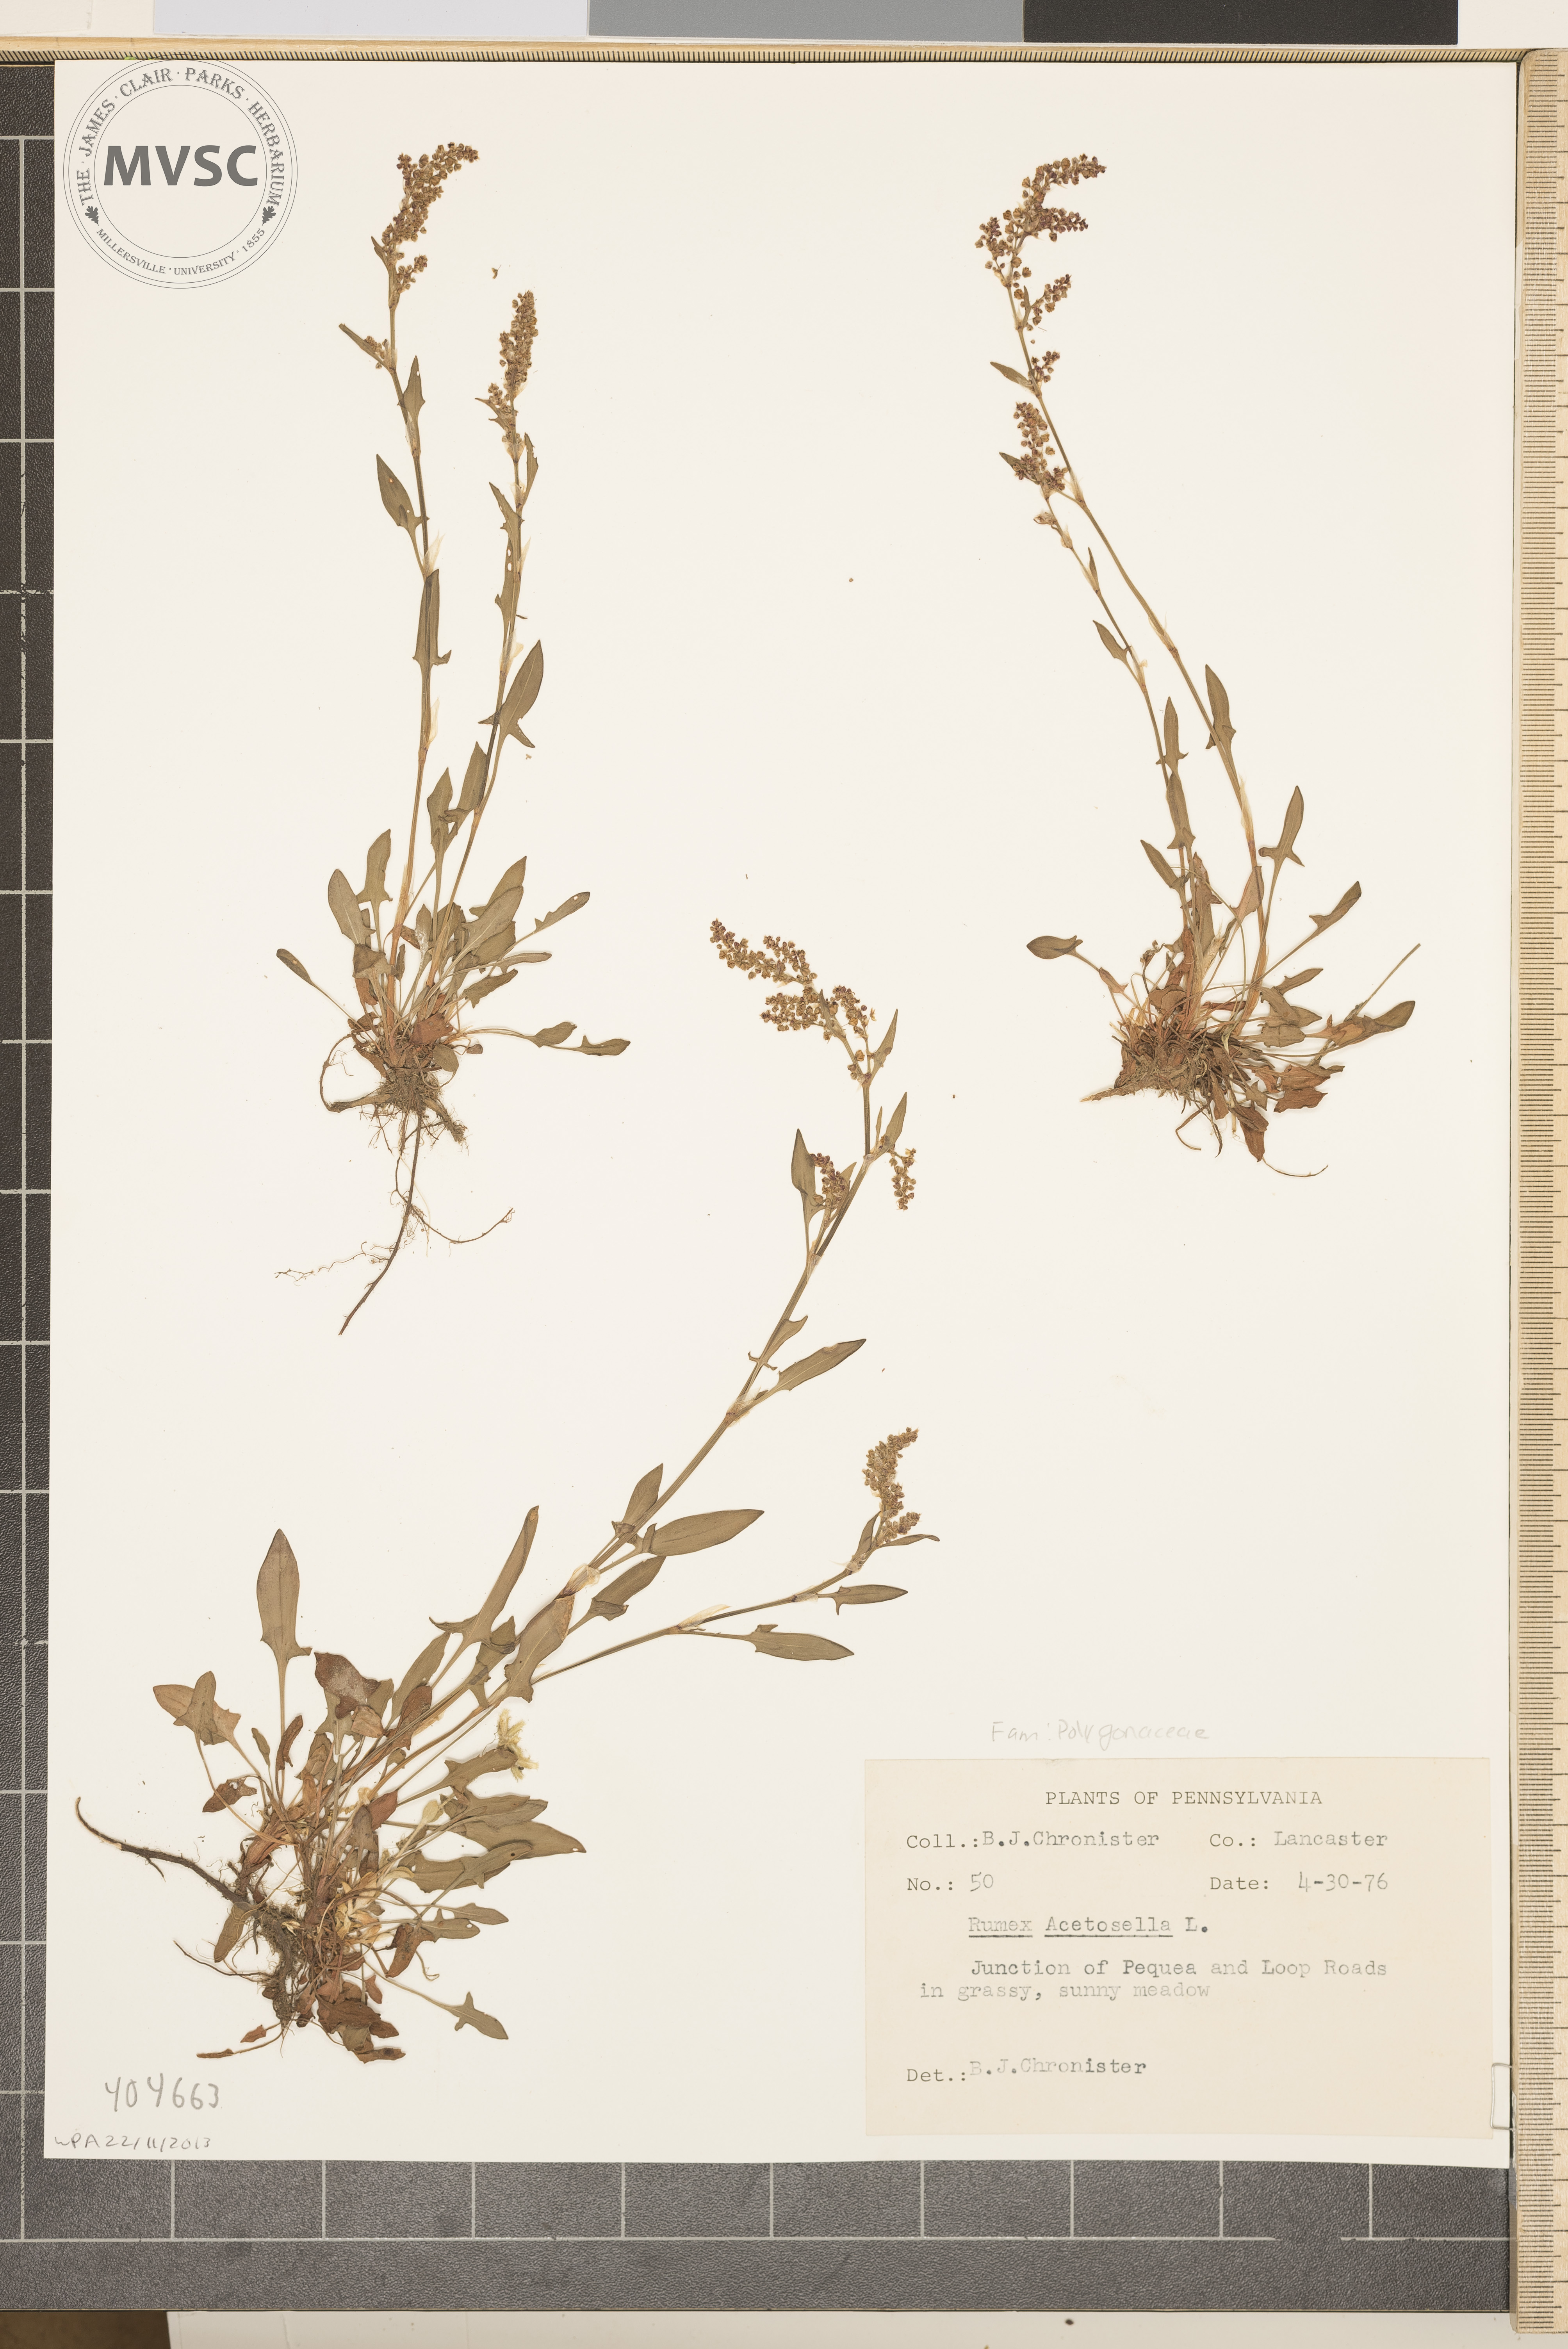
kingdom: Plantae
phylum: Tracheophyta
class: Magnoliopsida
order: Caryophyllales
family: Polygonaceae
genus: Rumex
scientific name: Rumex acetosella
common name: Common sheep sorrel
